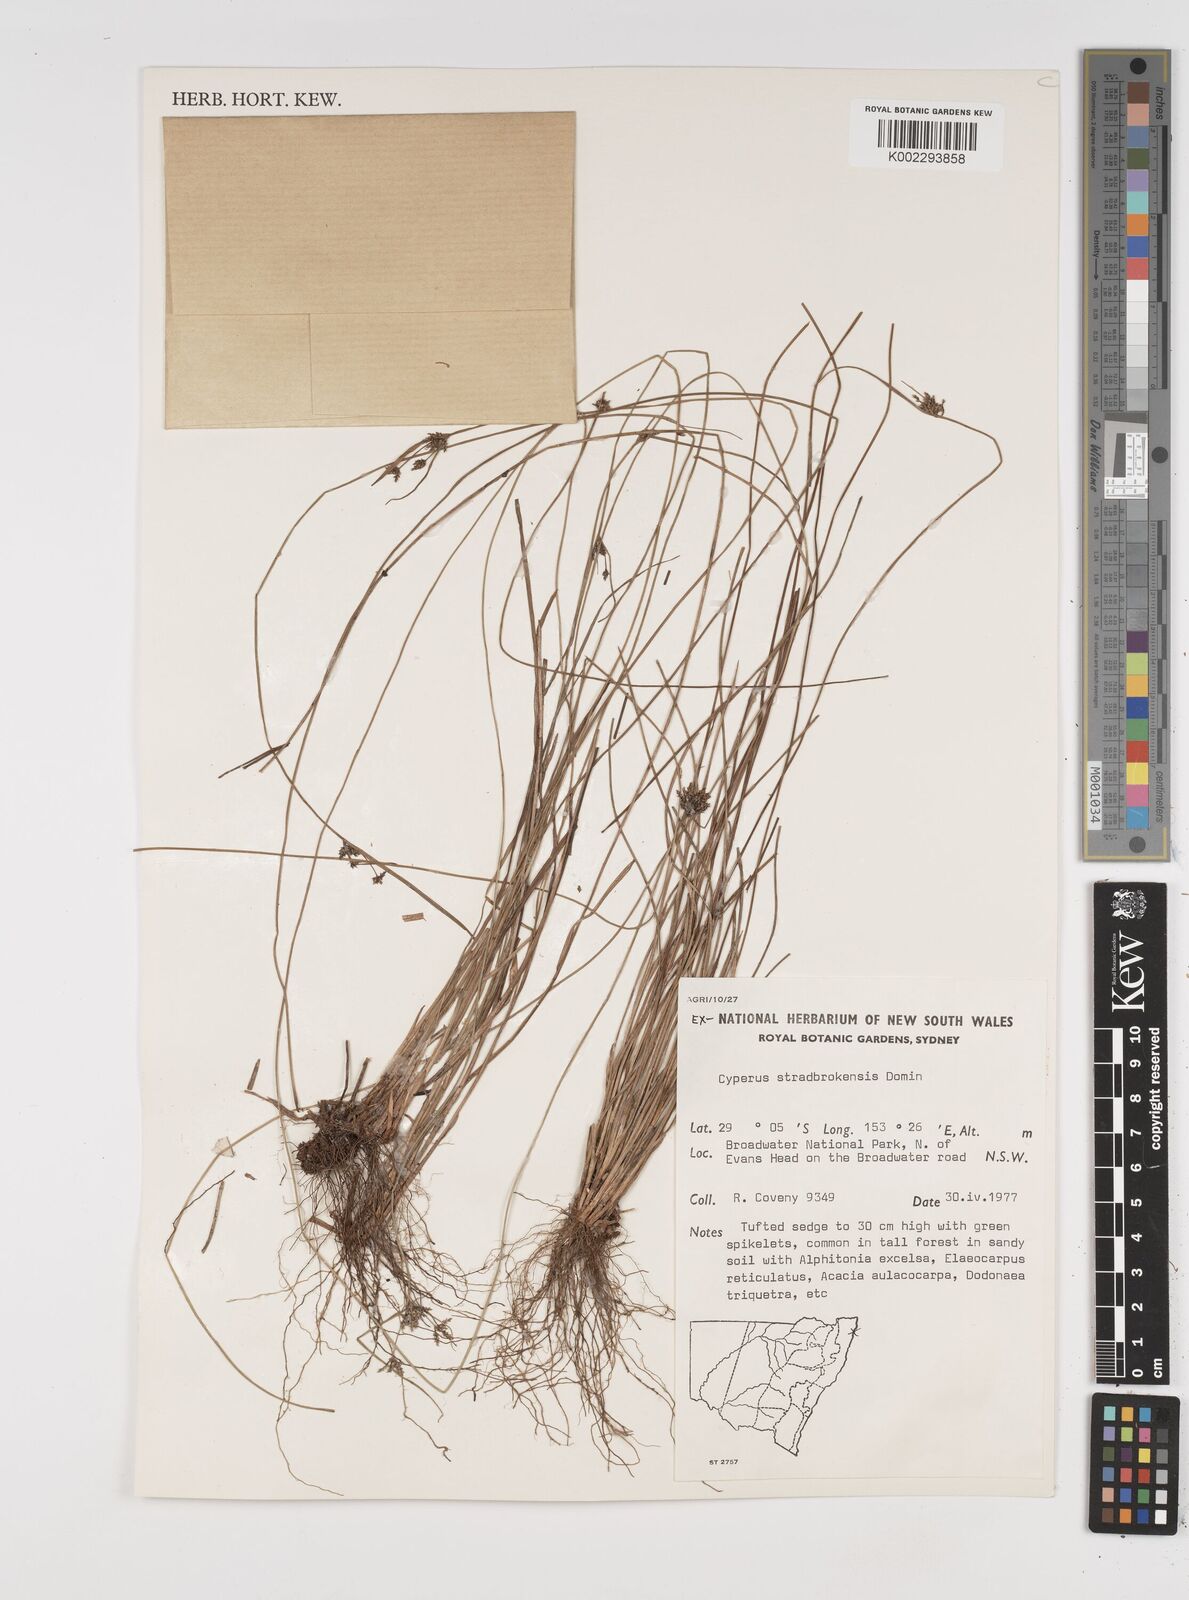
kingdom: Plantae
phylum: Tracheophyta
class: Liliopsida
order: Poales
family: Cyperaceae
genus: Cyperus
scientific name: Cyperus stradbrokensis
